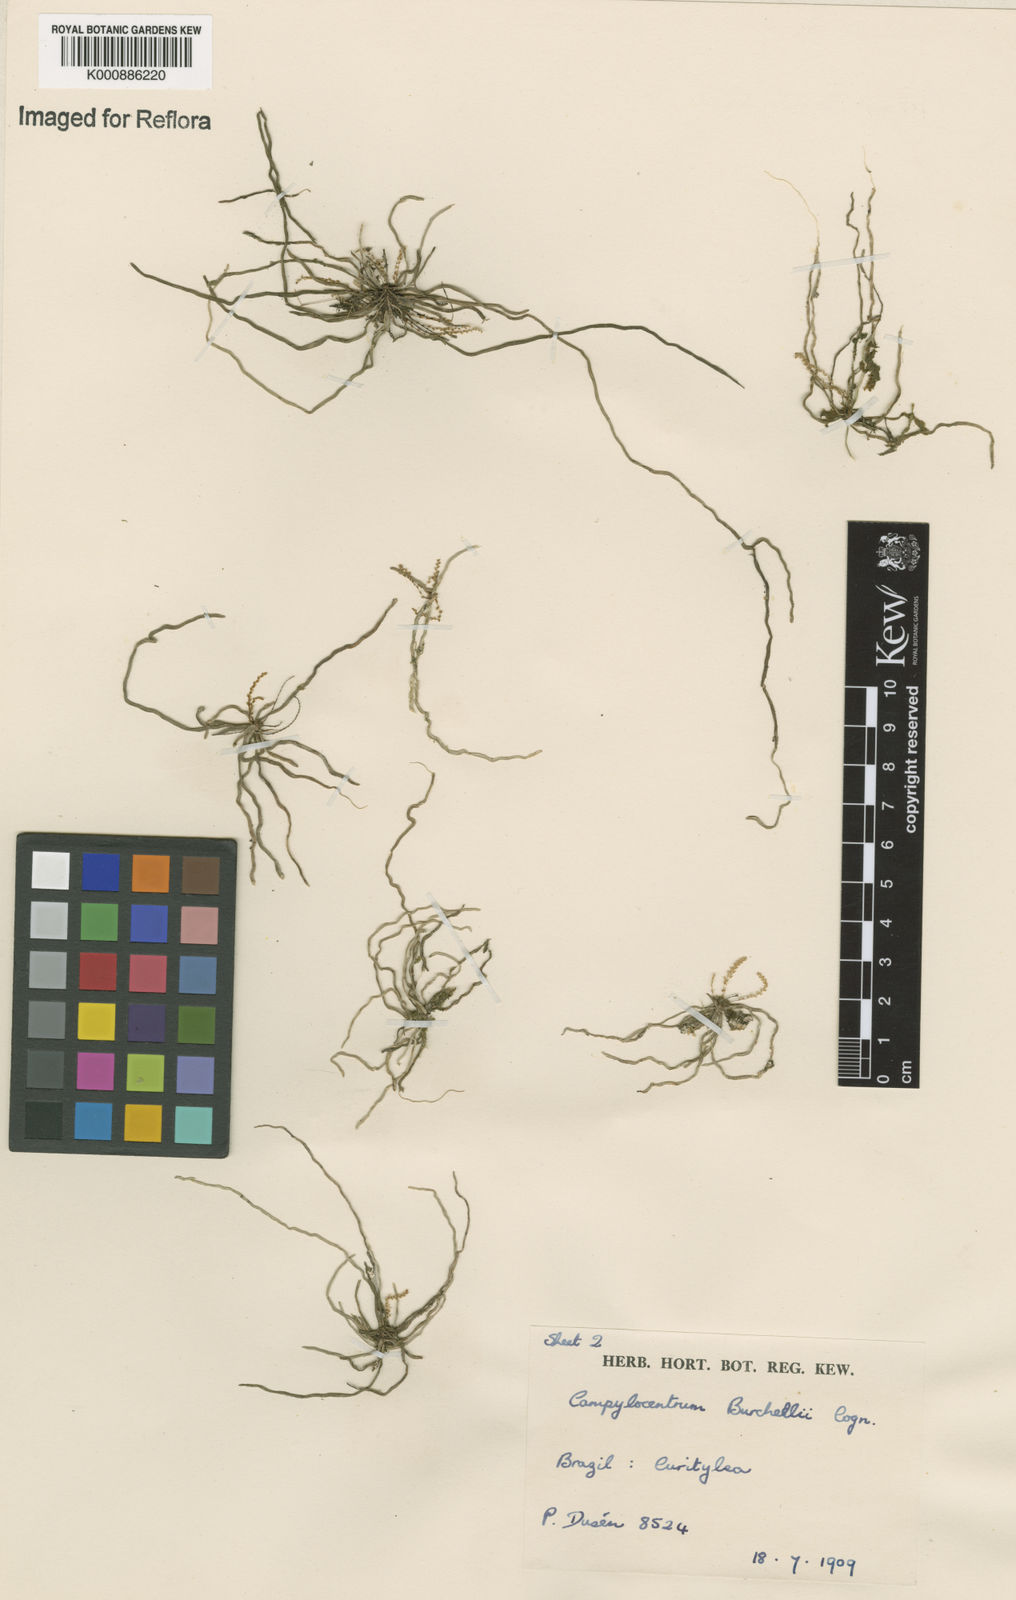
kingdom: Plantae
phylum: Tracheophyta
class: Liliopsida
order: Asparagales
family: Orchidaceae
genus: Campylocentrum
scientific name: Campylocentrum grisebachii
